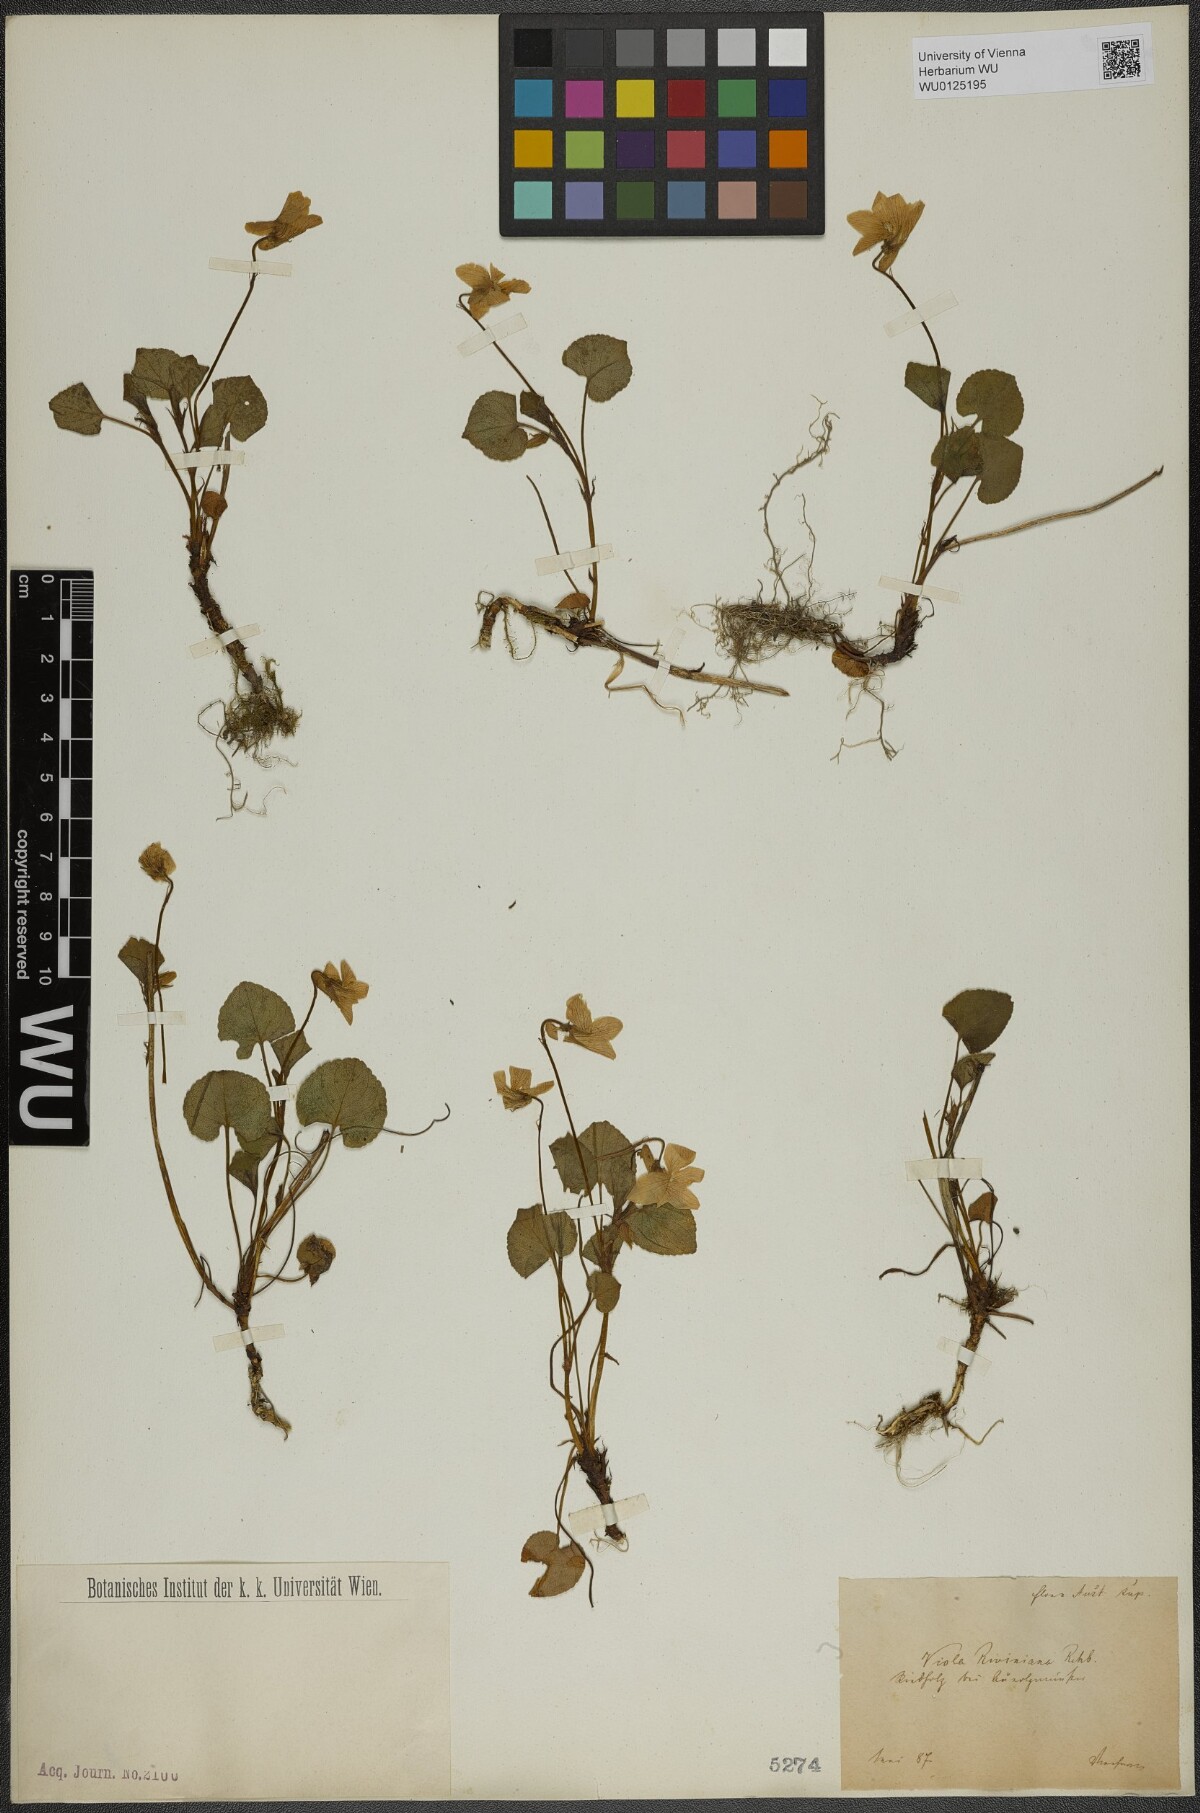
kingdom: Plantae
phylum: Tracheophyta
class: Magnoliopsida
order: Malpighiales
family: Violaceae
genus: Viola
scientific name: Viola riviniana
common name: Common dog-violet
